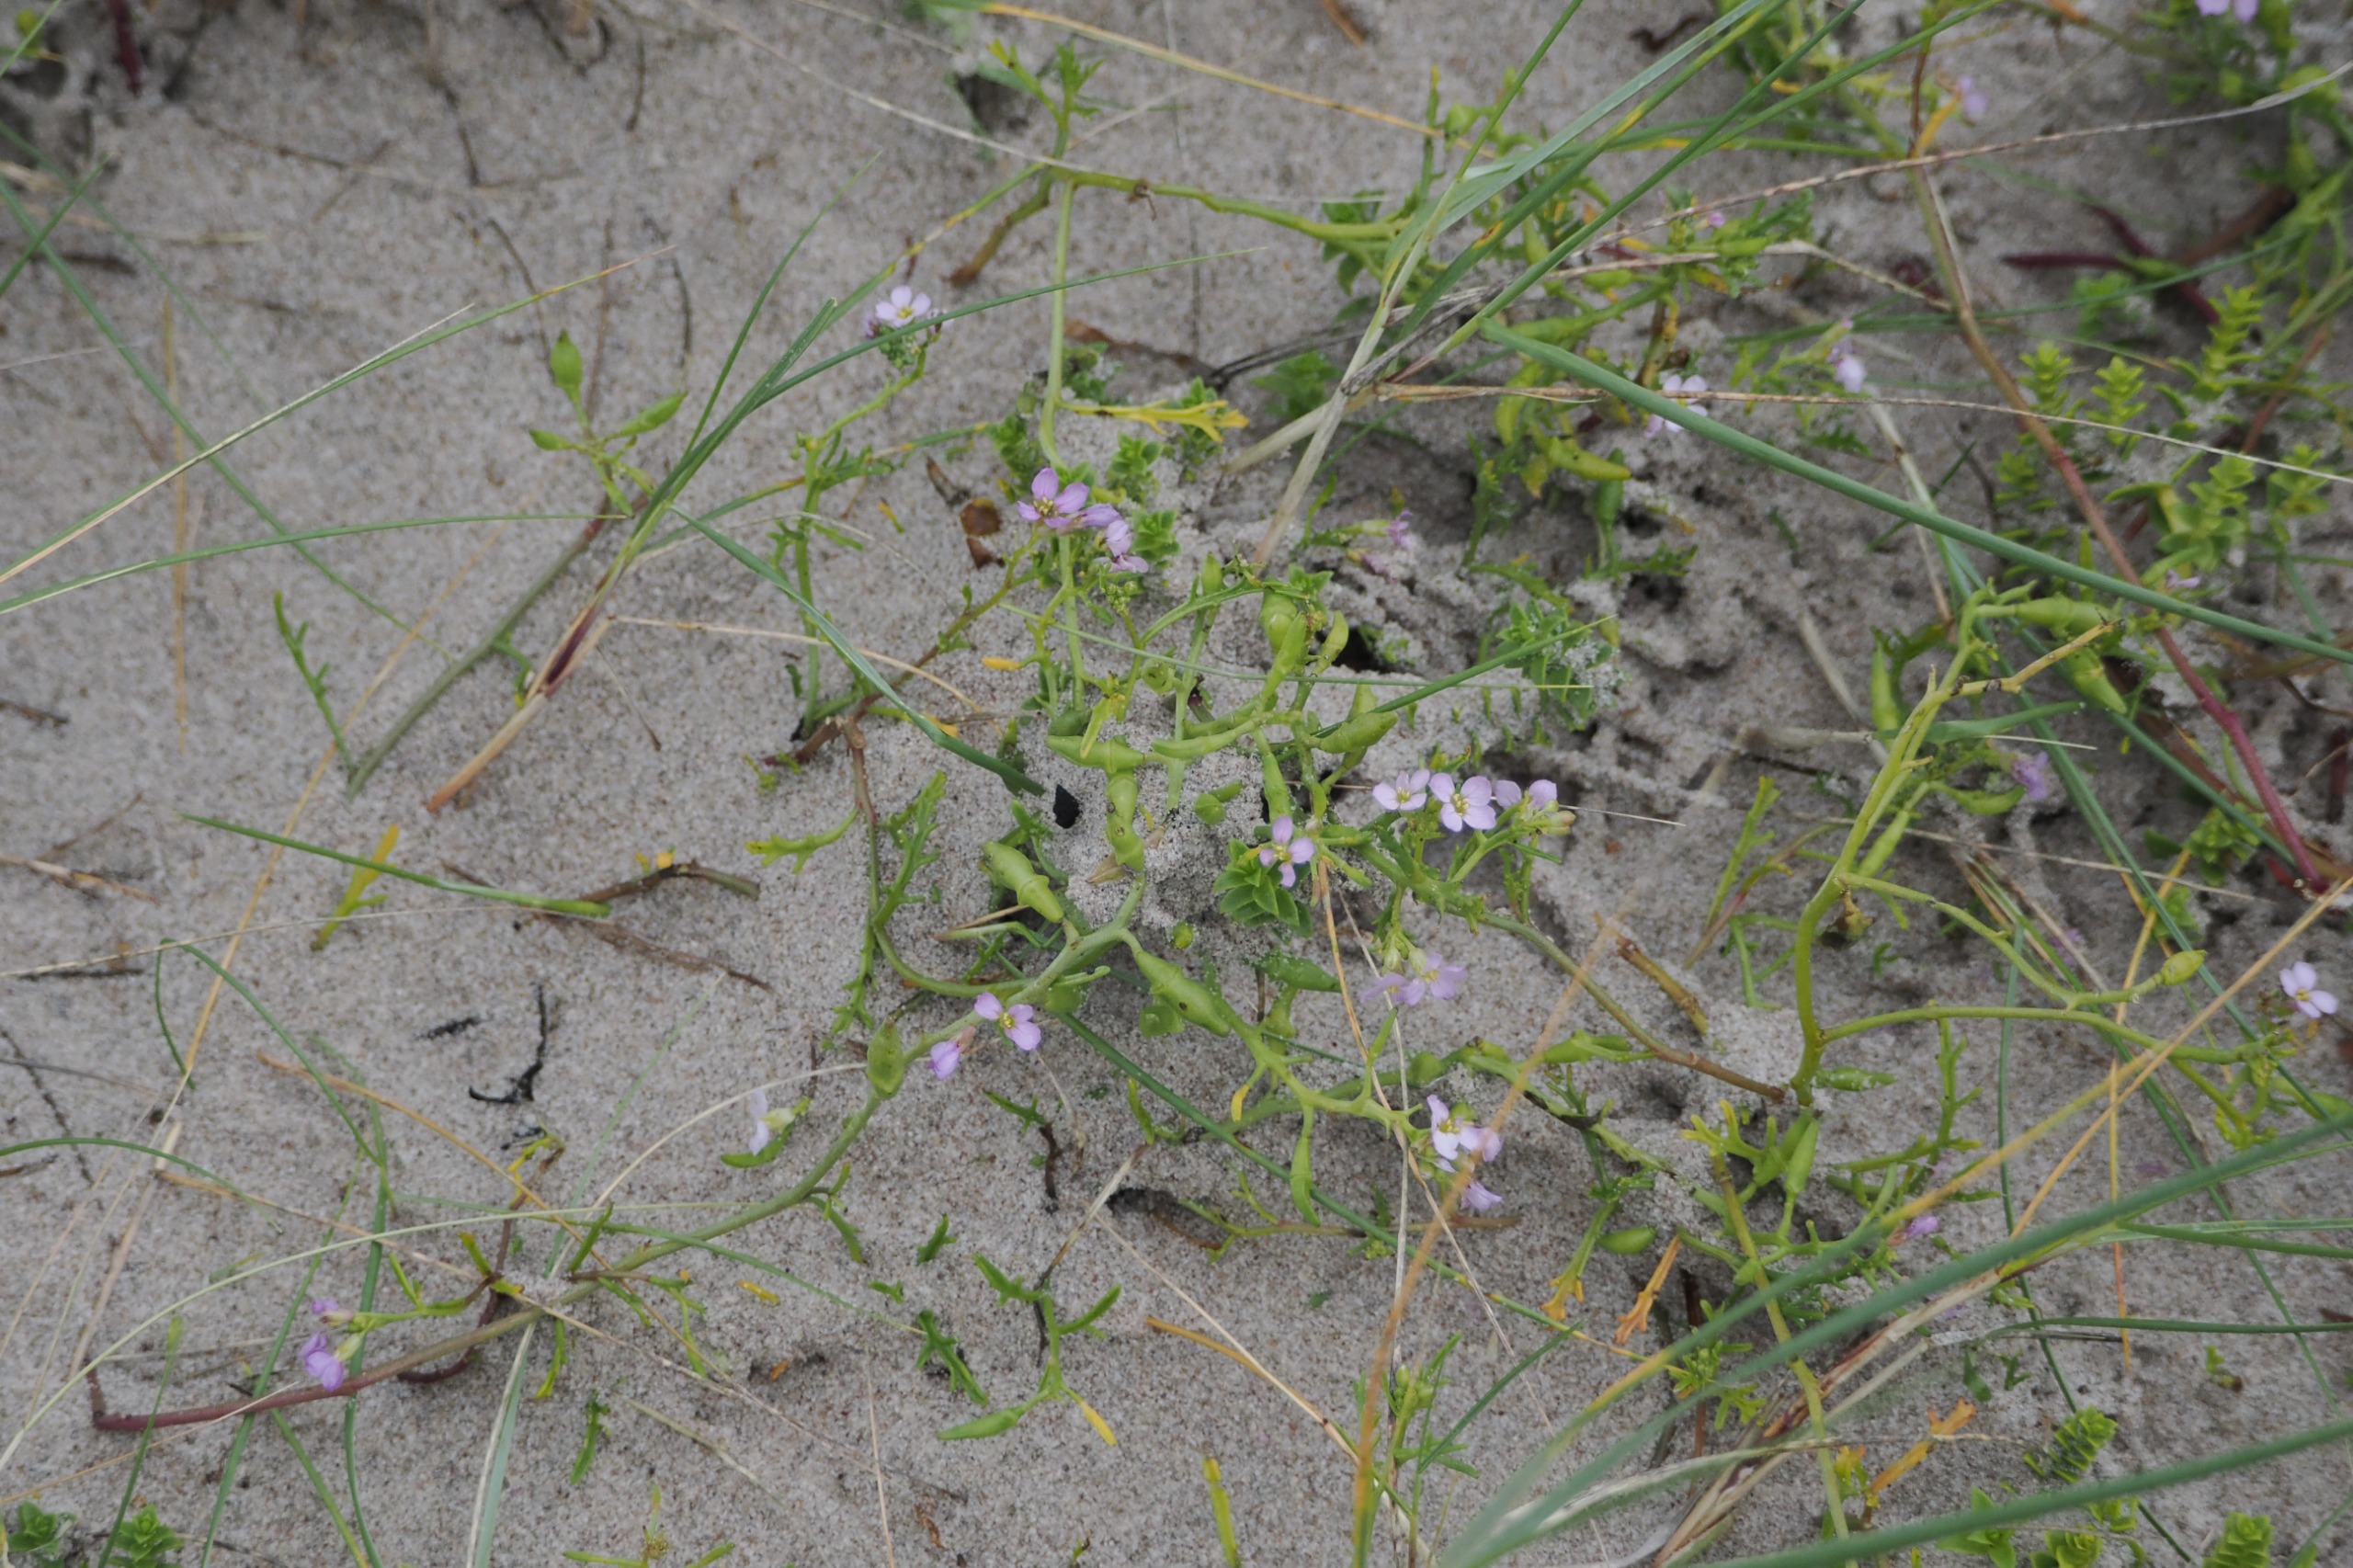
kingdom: Plantae
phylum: Tracheophyta
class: Magnoliopsida
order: Brassicales
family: Brassicaceae
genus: Cakile
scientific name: Cakile maritima
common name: Strandsennep
